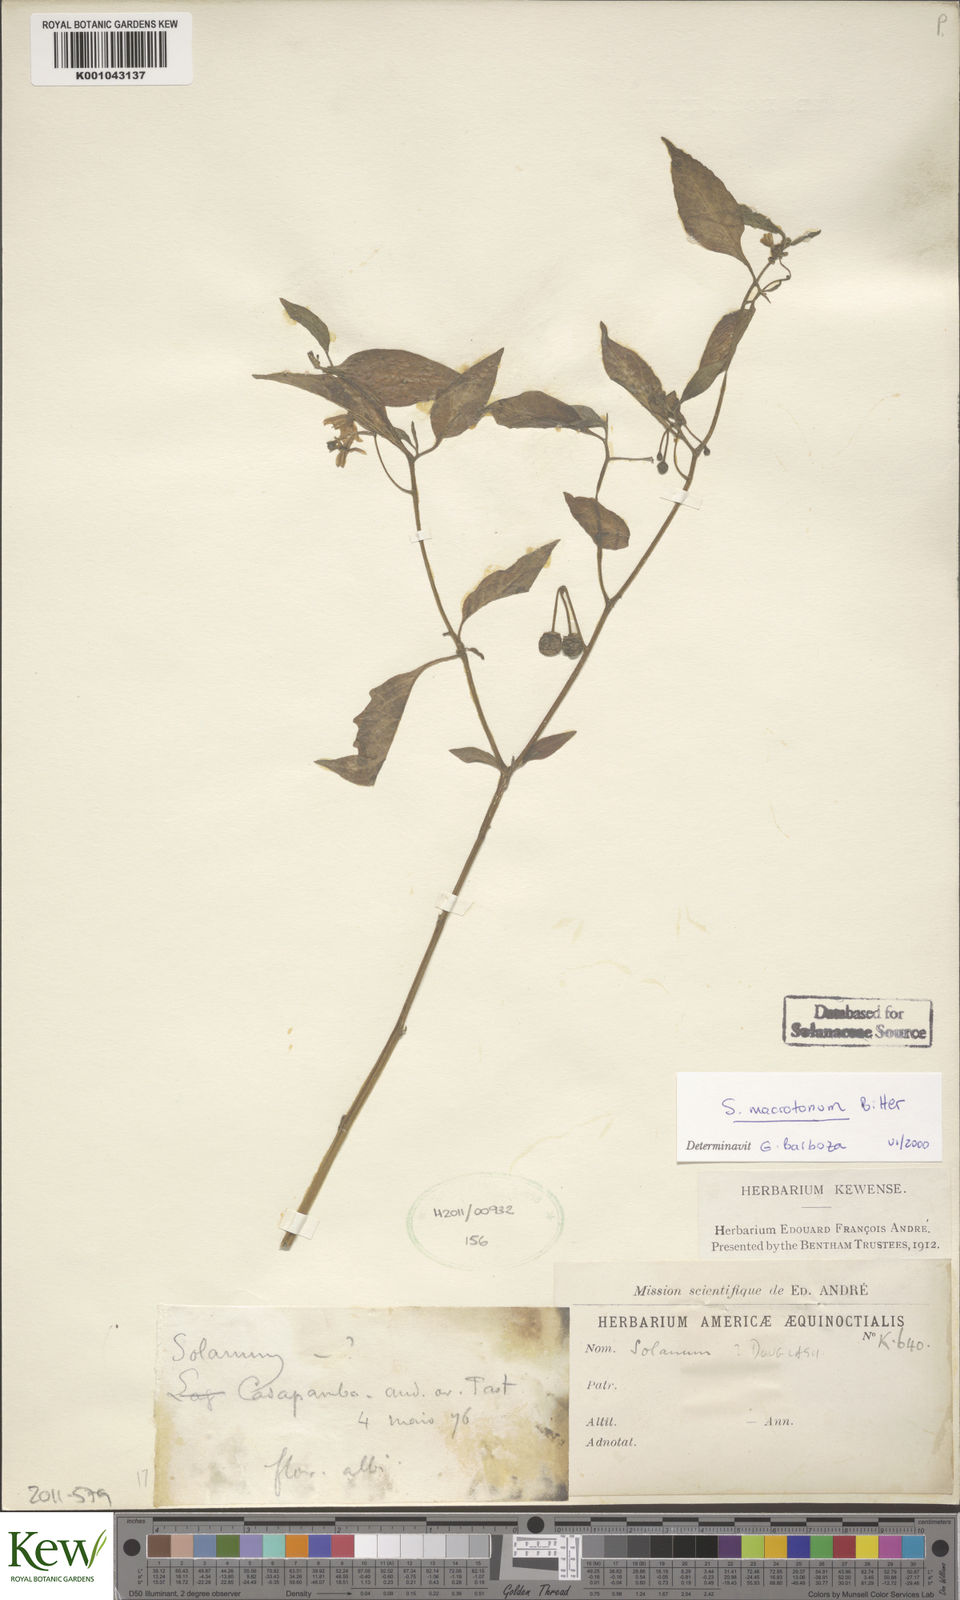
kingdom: Plantae
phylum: Tracheophyta
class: Magnoliopsida
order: Solanales
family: Solanaceae
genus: Solanum
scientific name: Solanum macrotonum
